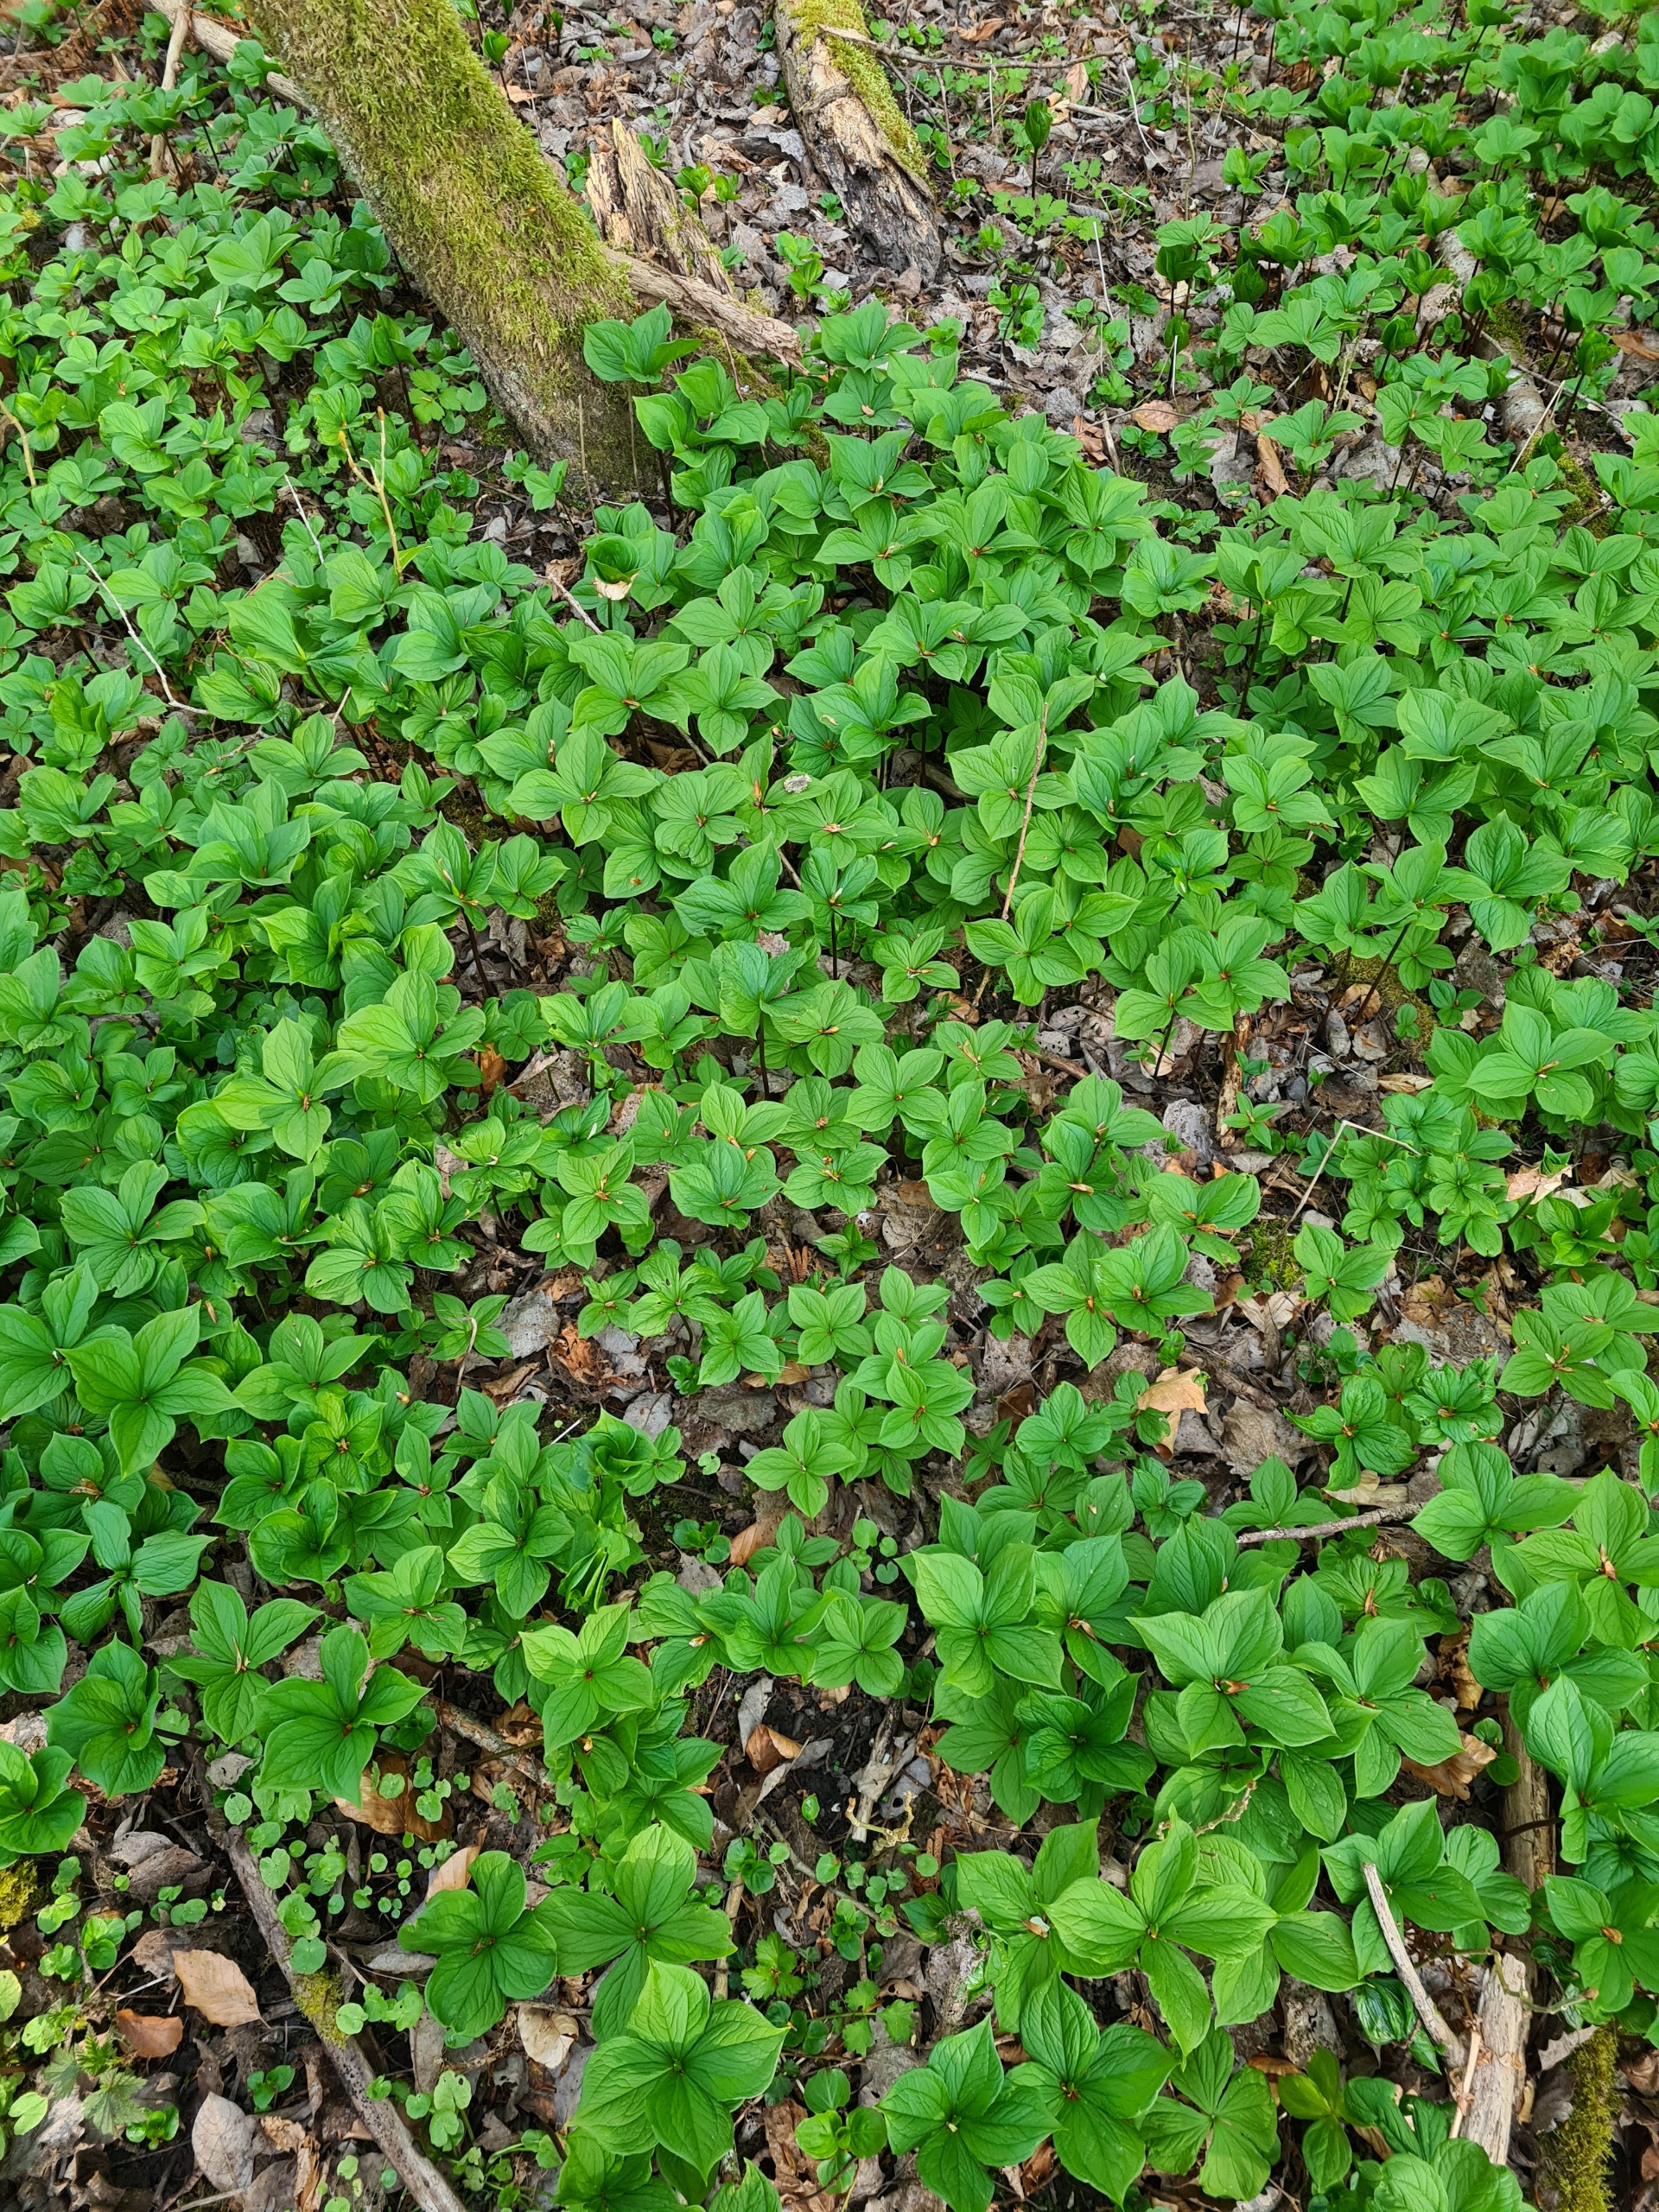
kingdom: Plantae
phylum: Tracheophyta
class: Liliopsida
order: Liliales
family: Melanthiaceae
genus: Paris
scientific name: Paris quadrifolia
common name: Firblad
